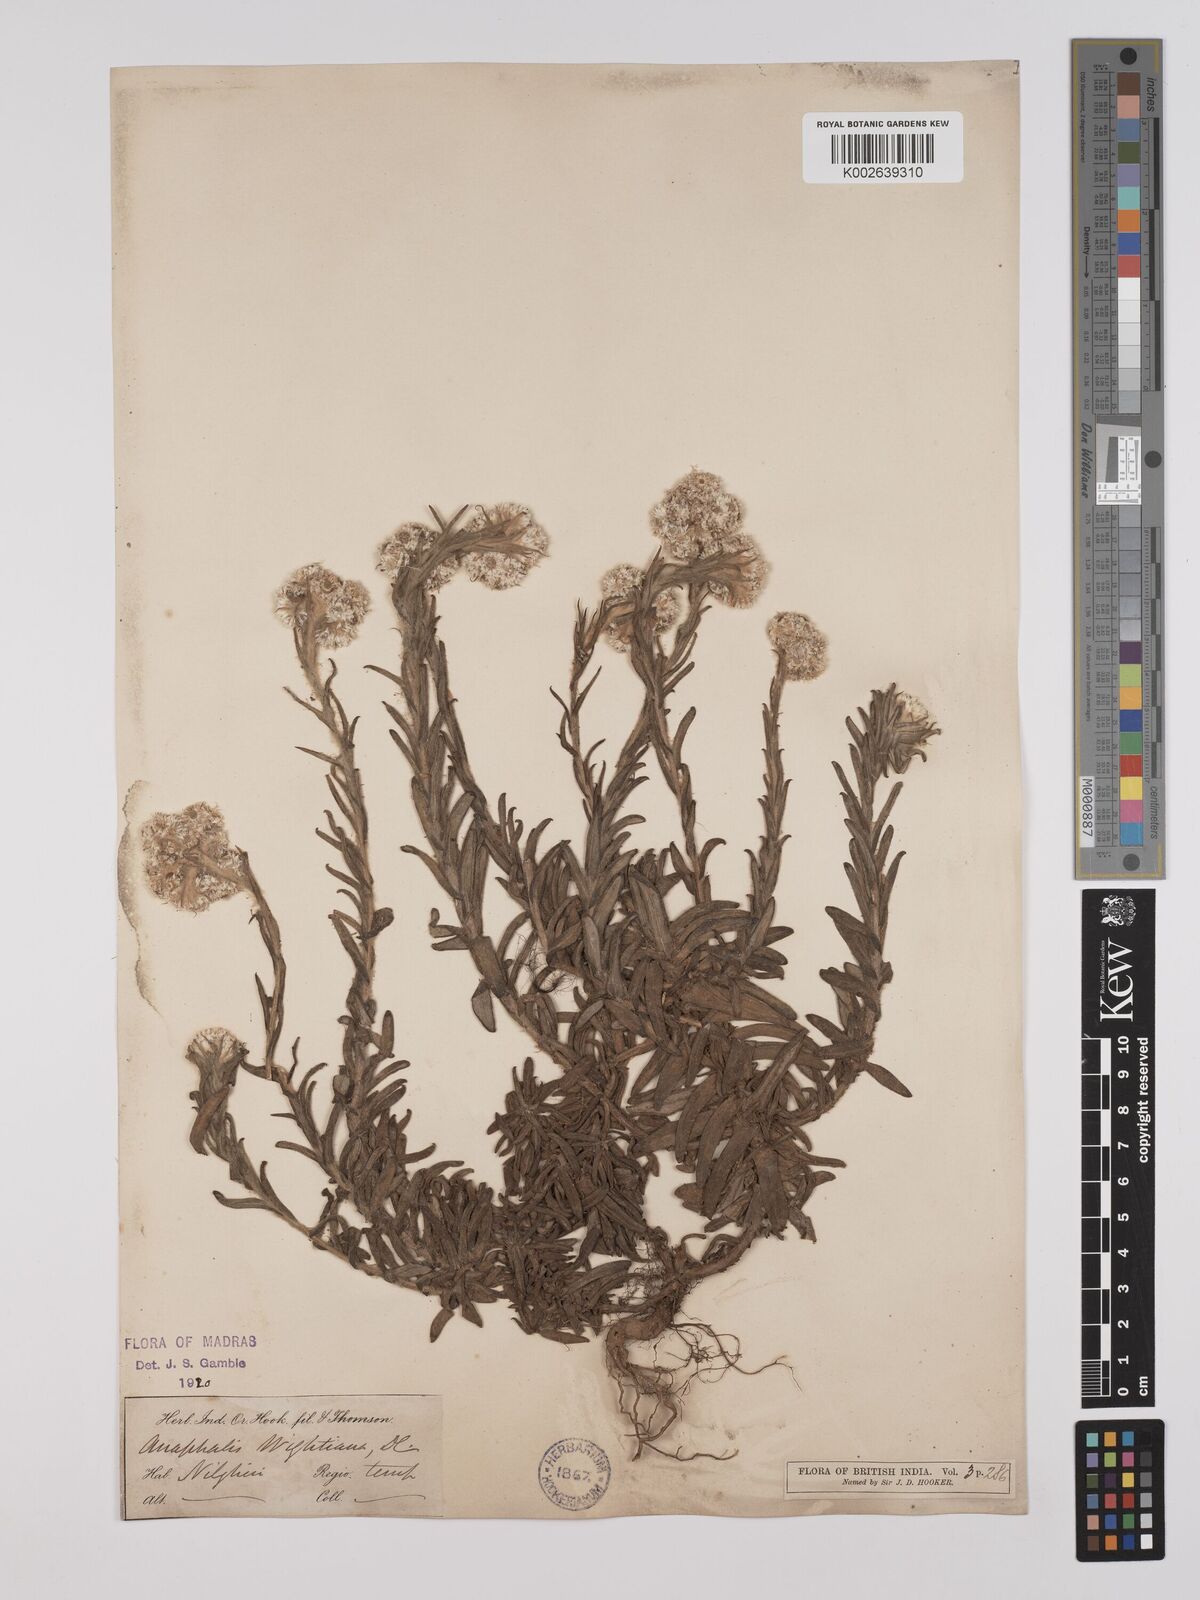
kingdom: Plantae
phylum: Tracheophyta
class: Magnoliopsida
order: Asterales
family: Asteraceae
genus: Anaphalis
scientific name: Anaphalis wightiana
